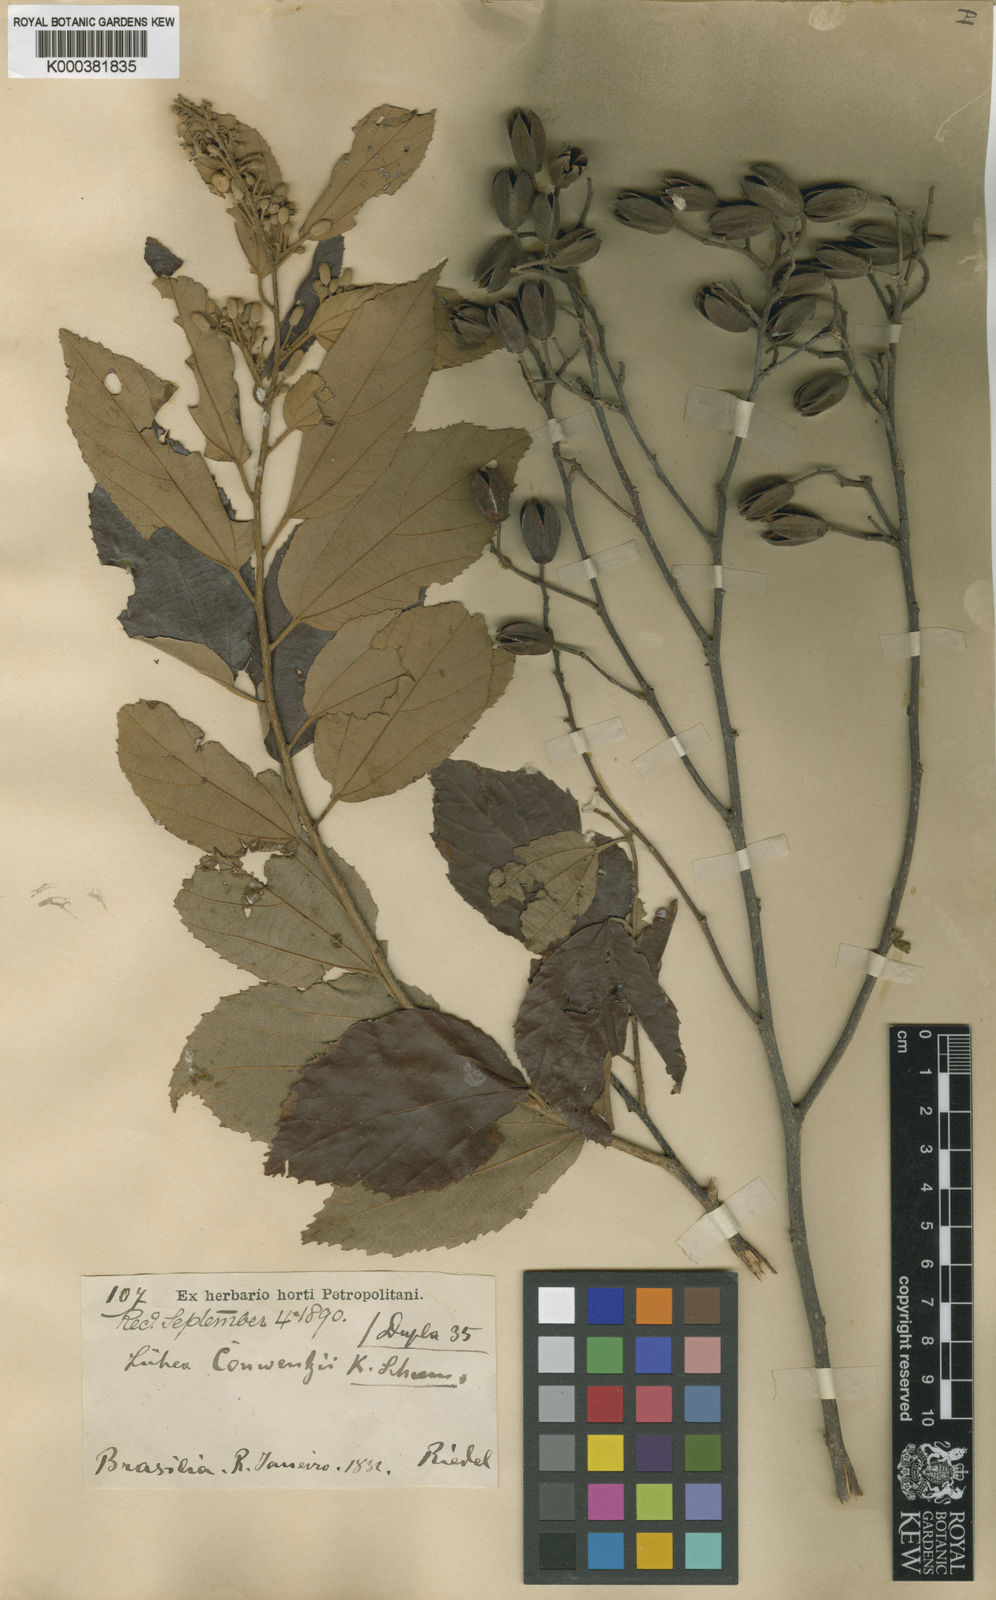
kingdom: Plantae
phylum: Tracheophyta
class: Magnoliopsida
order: Malvales
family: Malvaceae
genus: Luehea
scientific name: Luehea conwentzii
